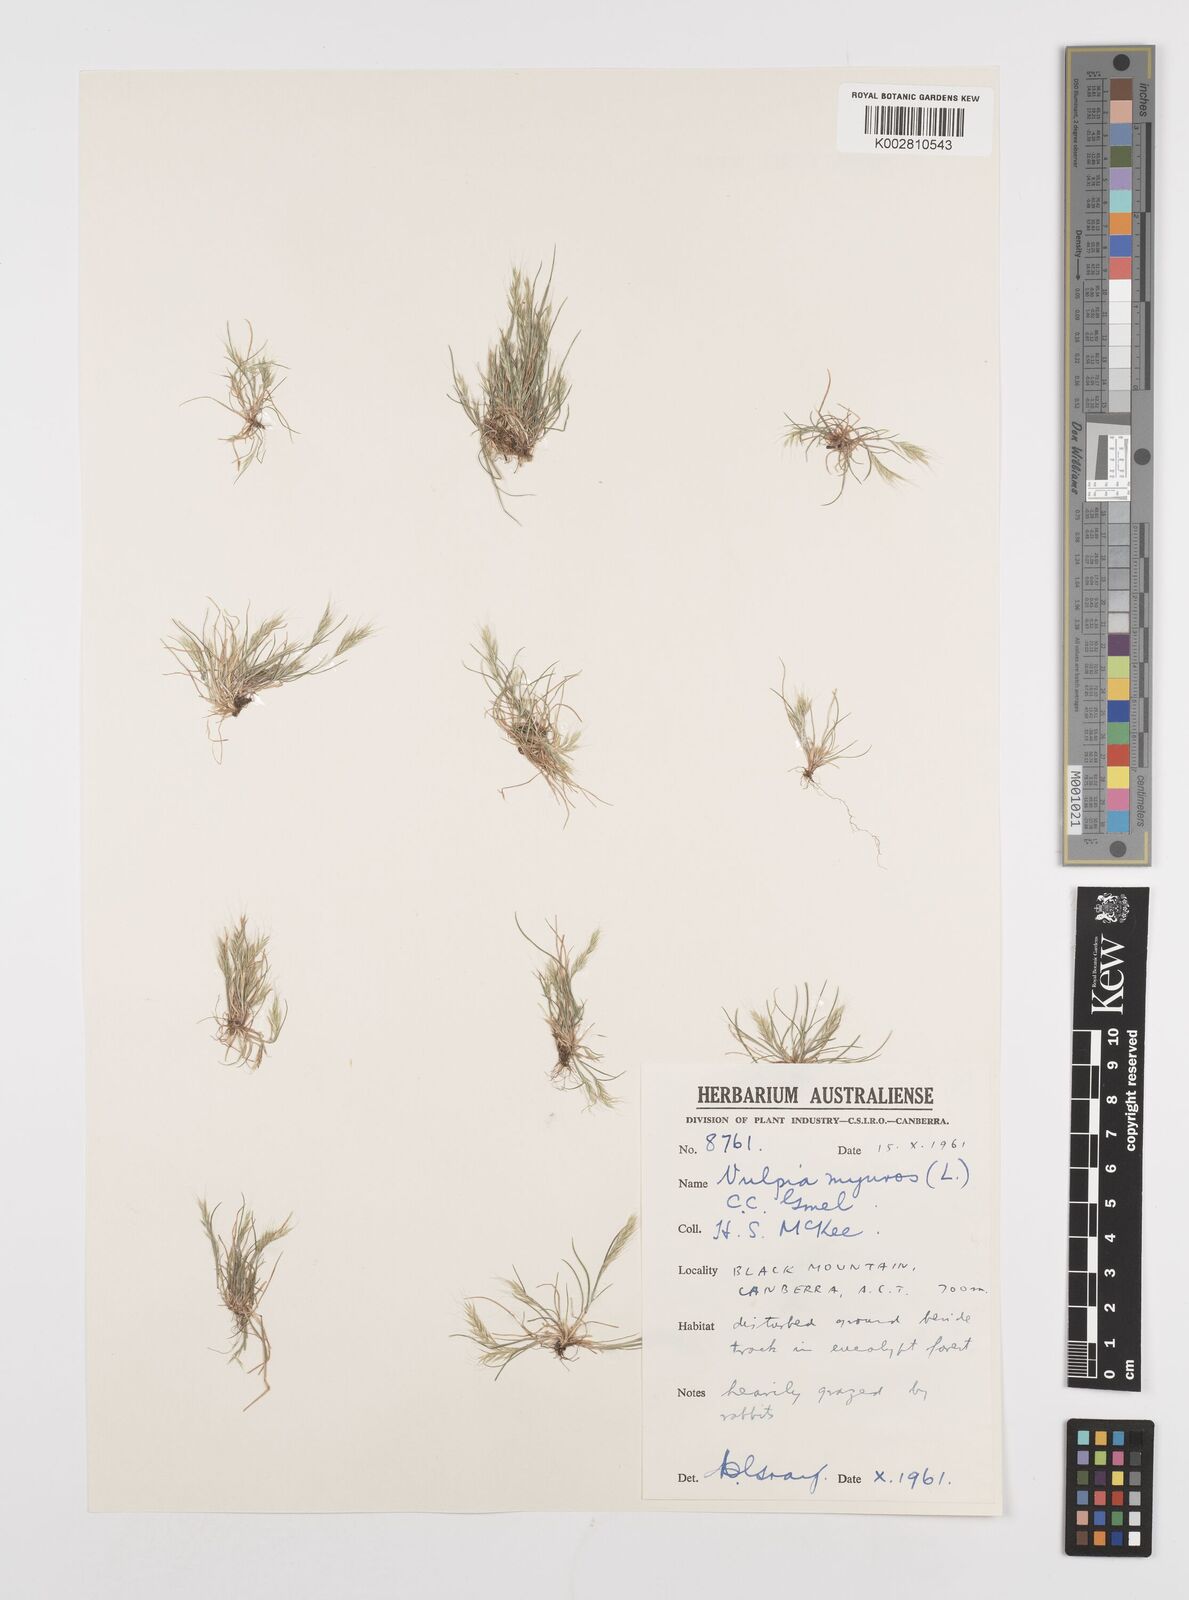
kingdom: Plantae
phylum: Tracheophyta
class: Liliopsida
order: Poales
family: Poaceae
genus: Festuca
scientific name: Festuca myuros
